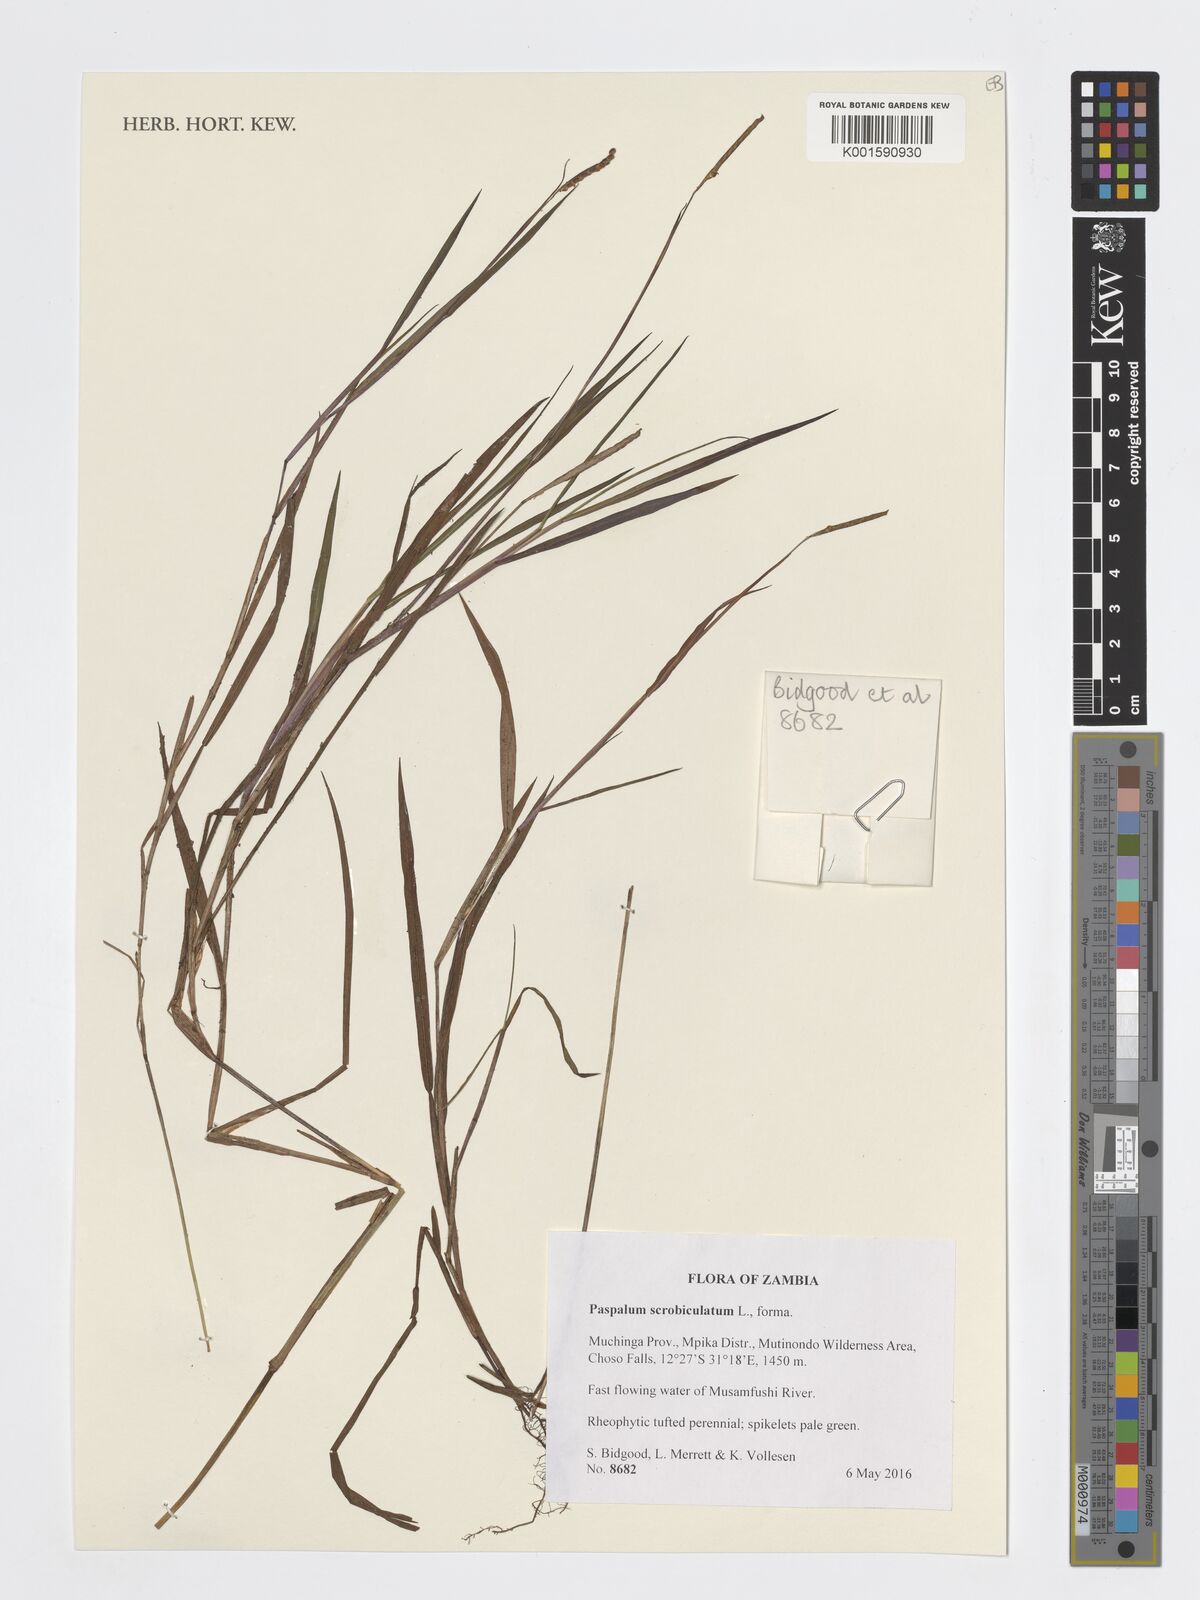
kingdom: Plantae
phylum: Tracheophyta
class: Liliopsida
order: Poales
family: Poaceae
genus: Paspalum
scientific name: Paspalum scrobiculatum
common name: Kodo millet
